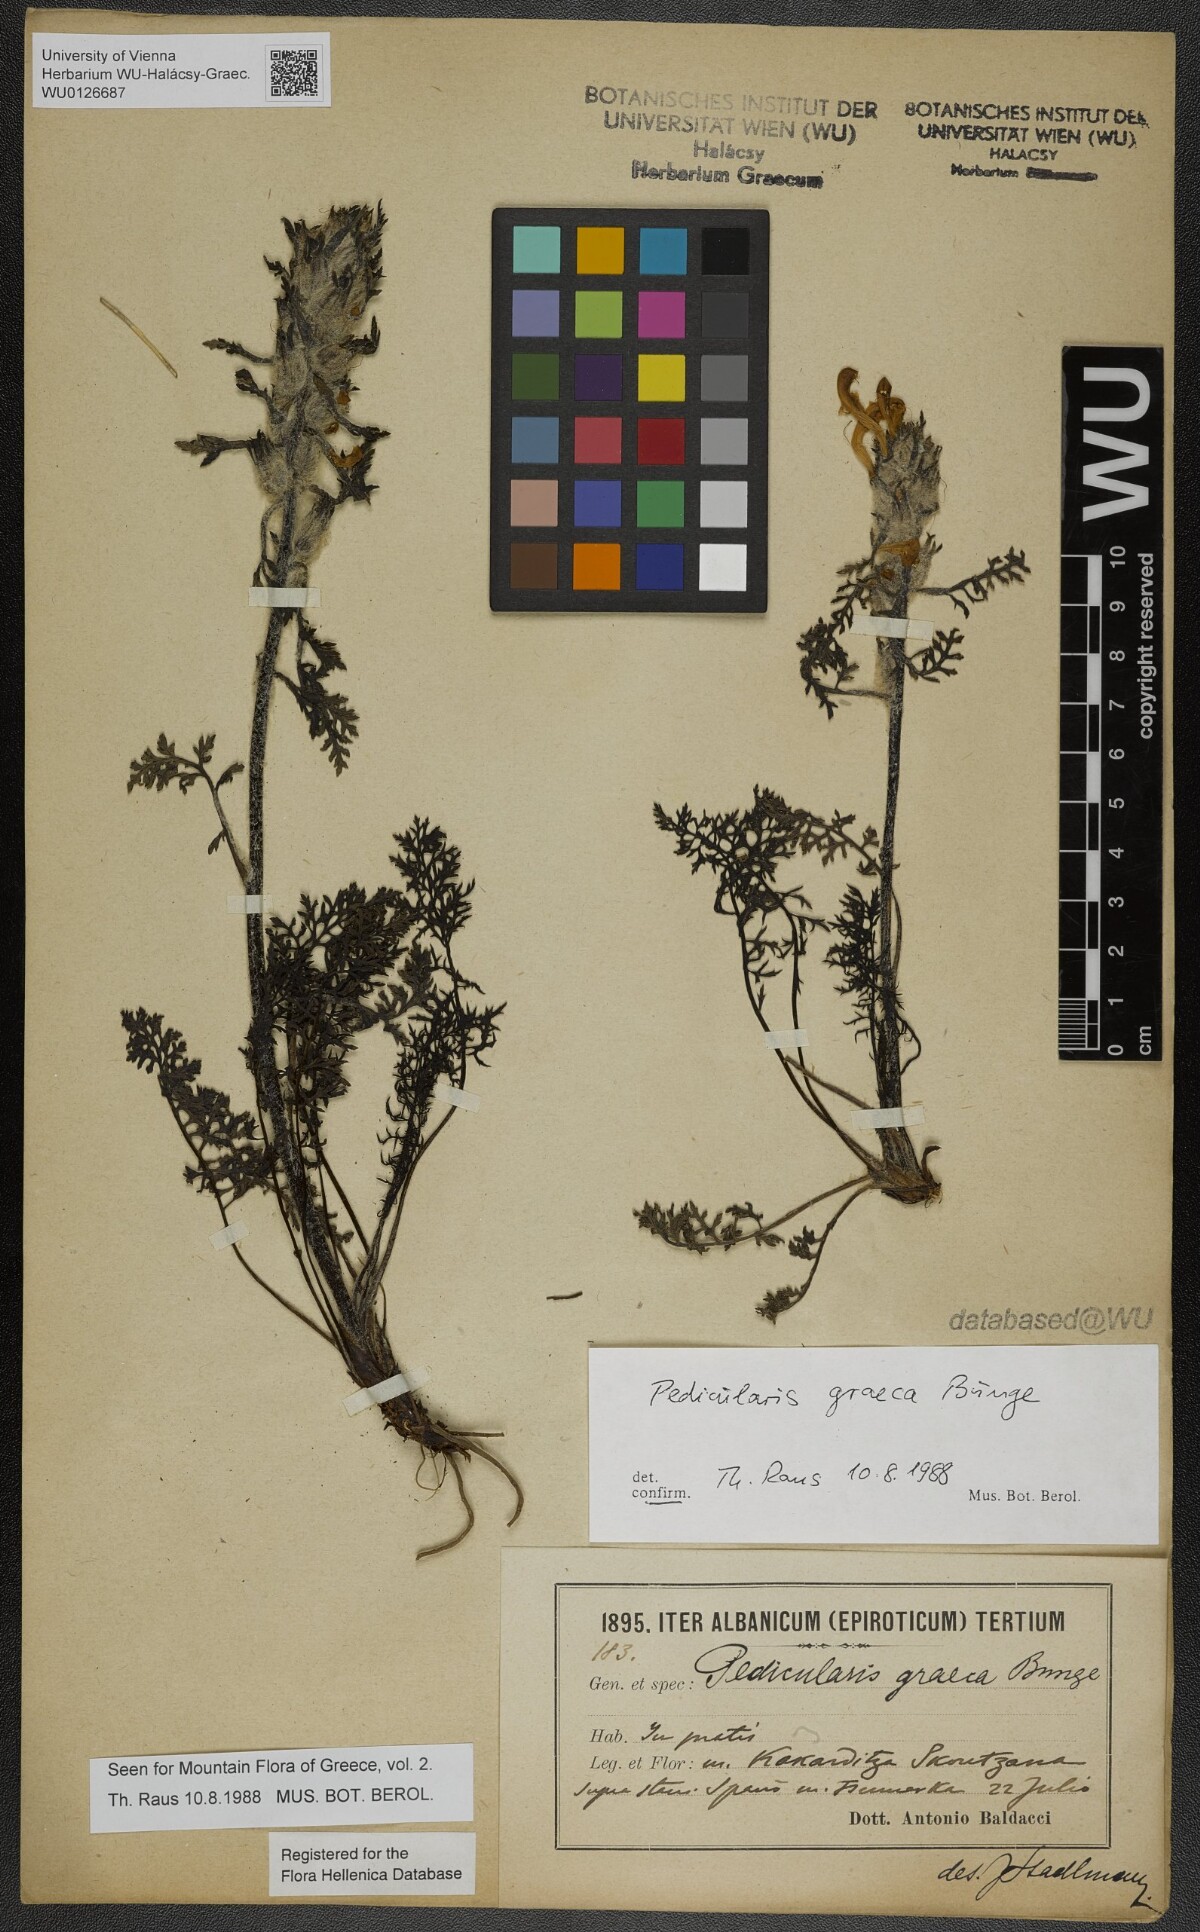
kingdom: Plantae
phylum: Tracheophyta
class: Magnoliopsida
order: Lamiales
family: Orobanchaceae
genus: Pedicularis
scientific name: Pedicularis graeca
